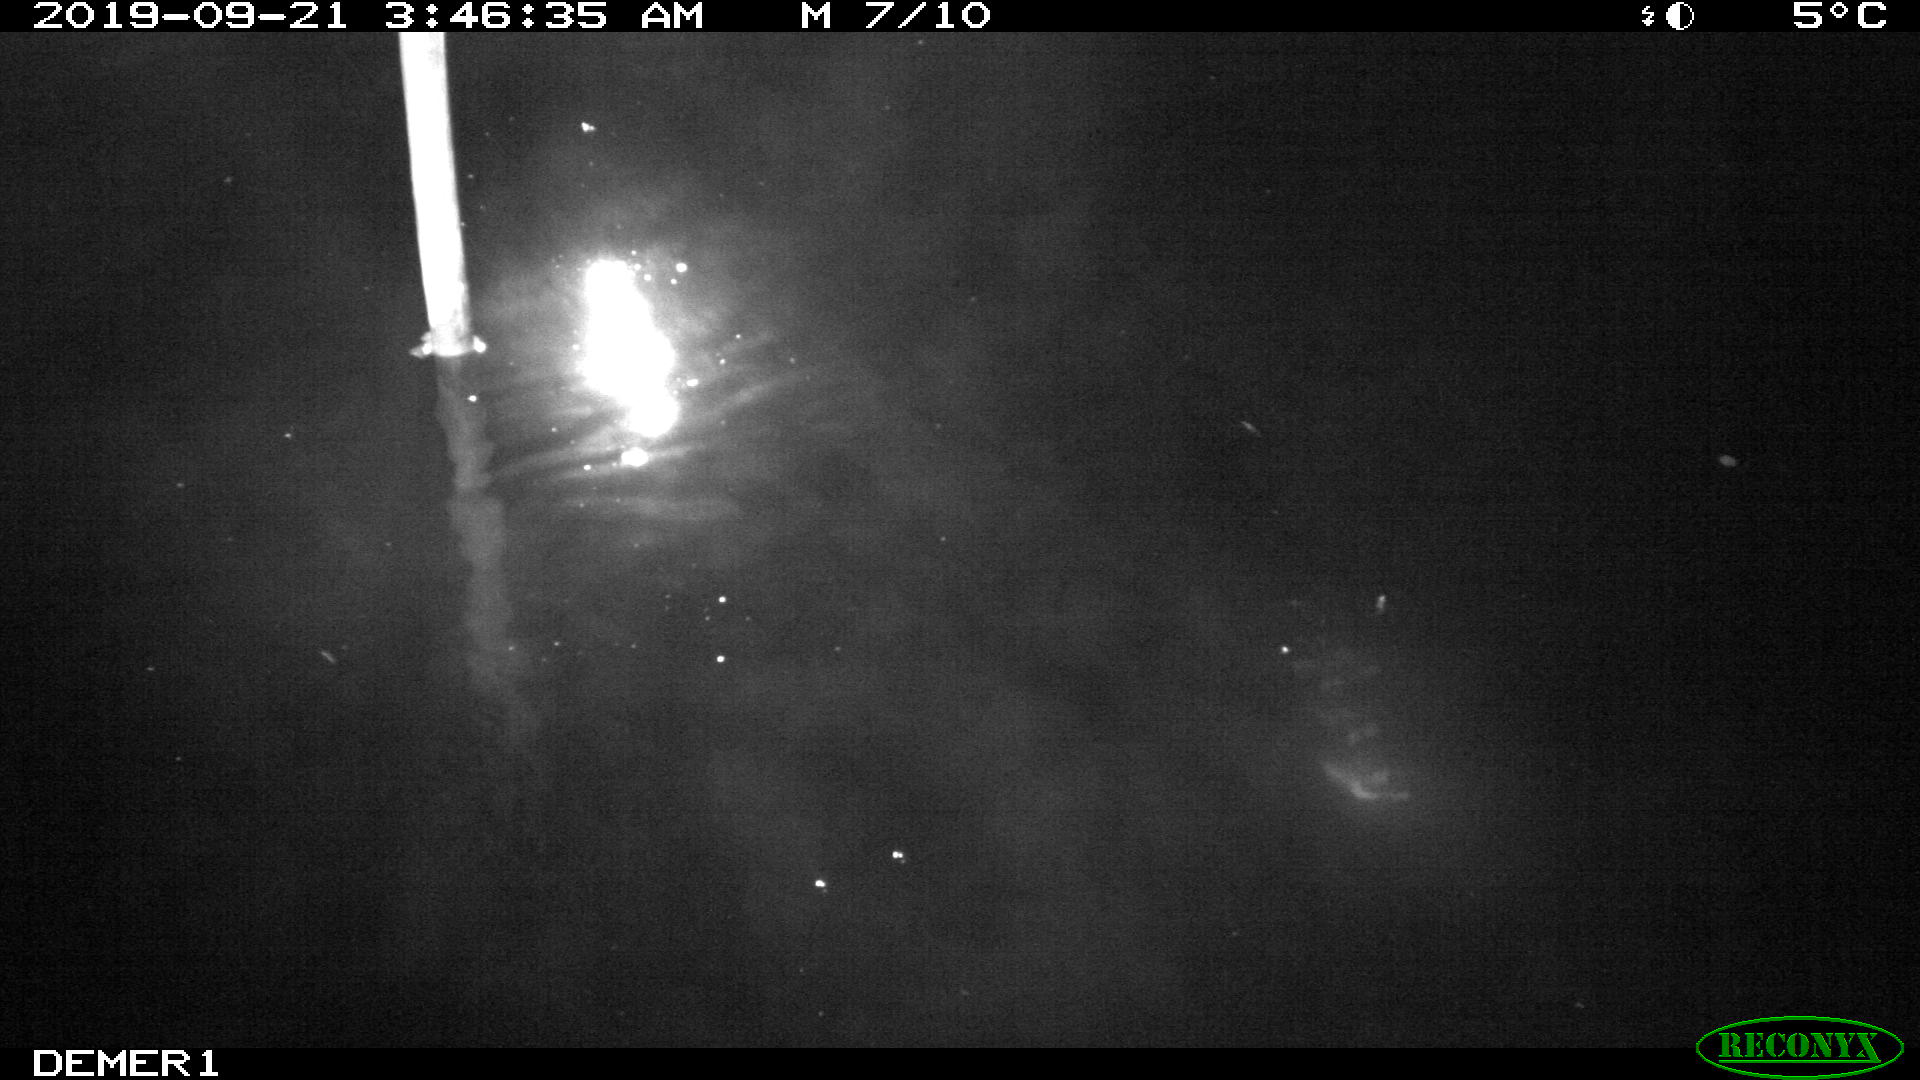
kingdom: Animalia
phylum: Chordata
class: Aves
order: Anseriformes
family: Anatidae
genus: Anas
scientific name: Anas platyrhynchos
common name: Mallard
